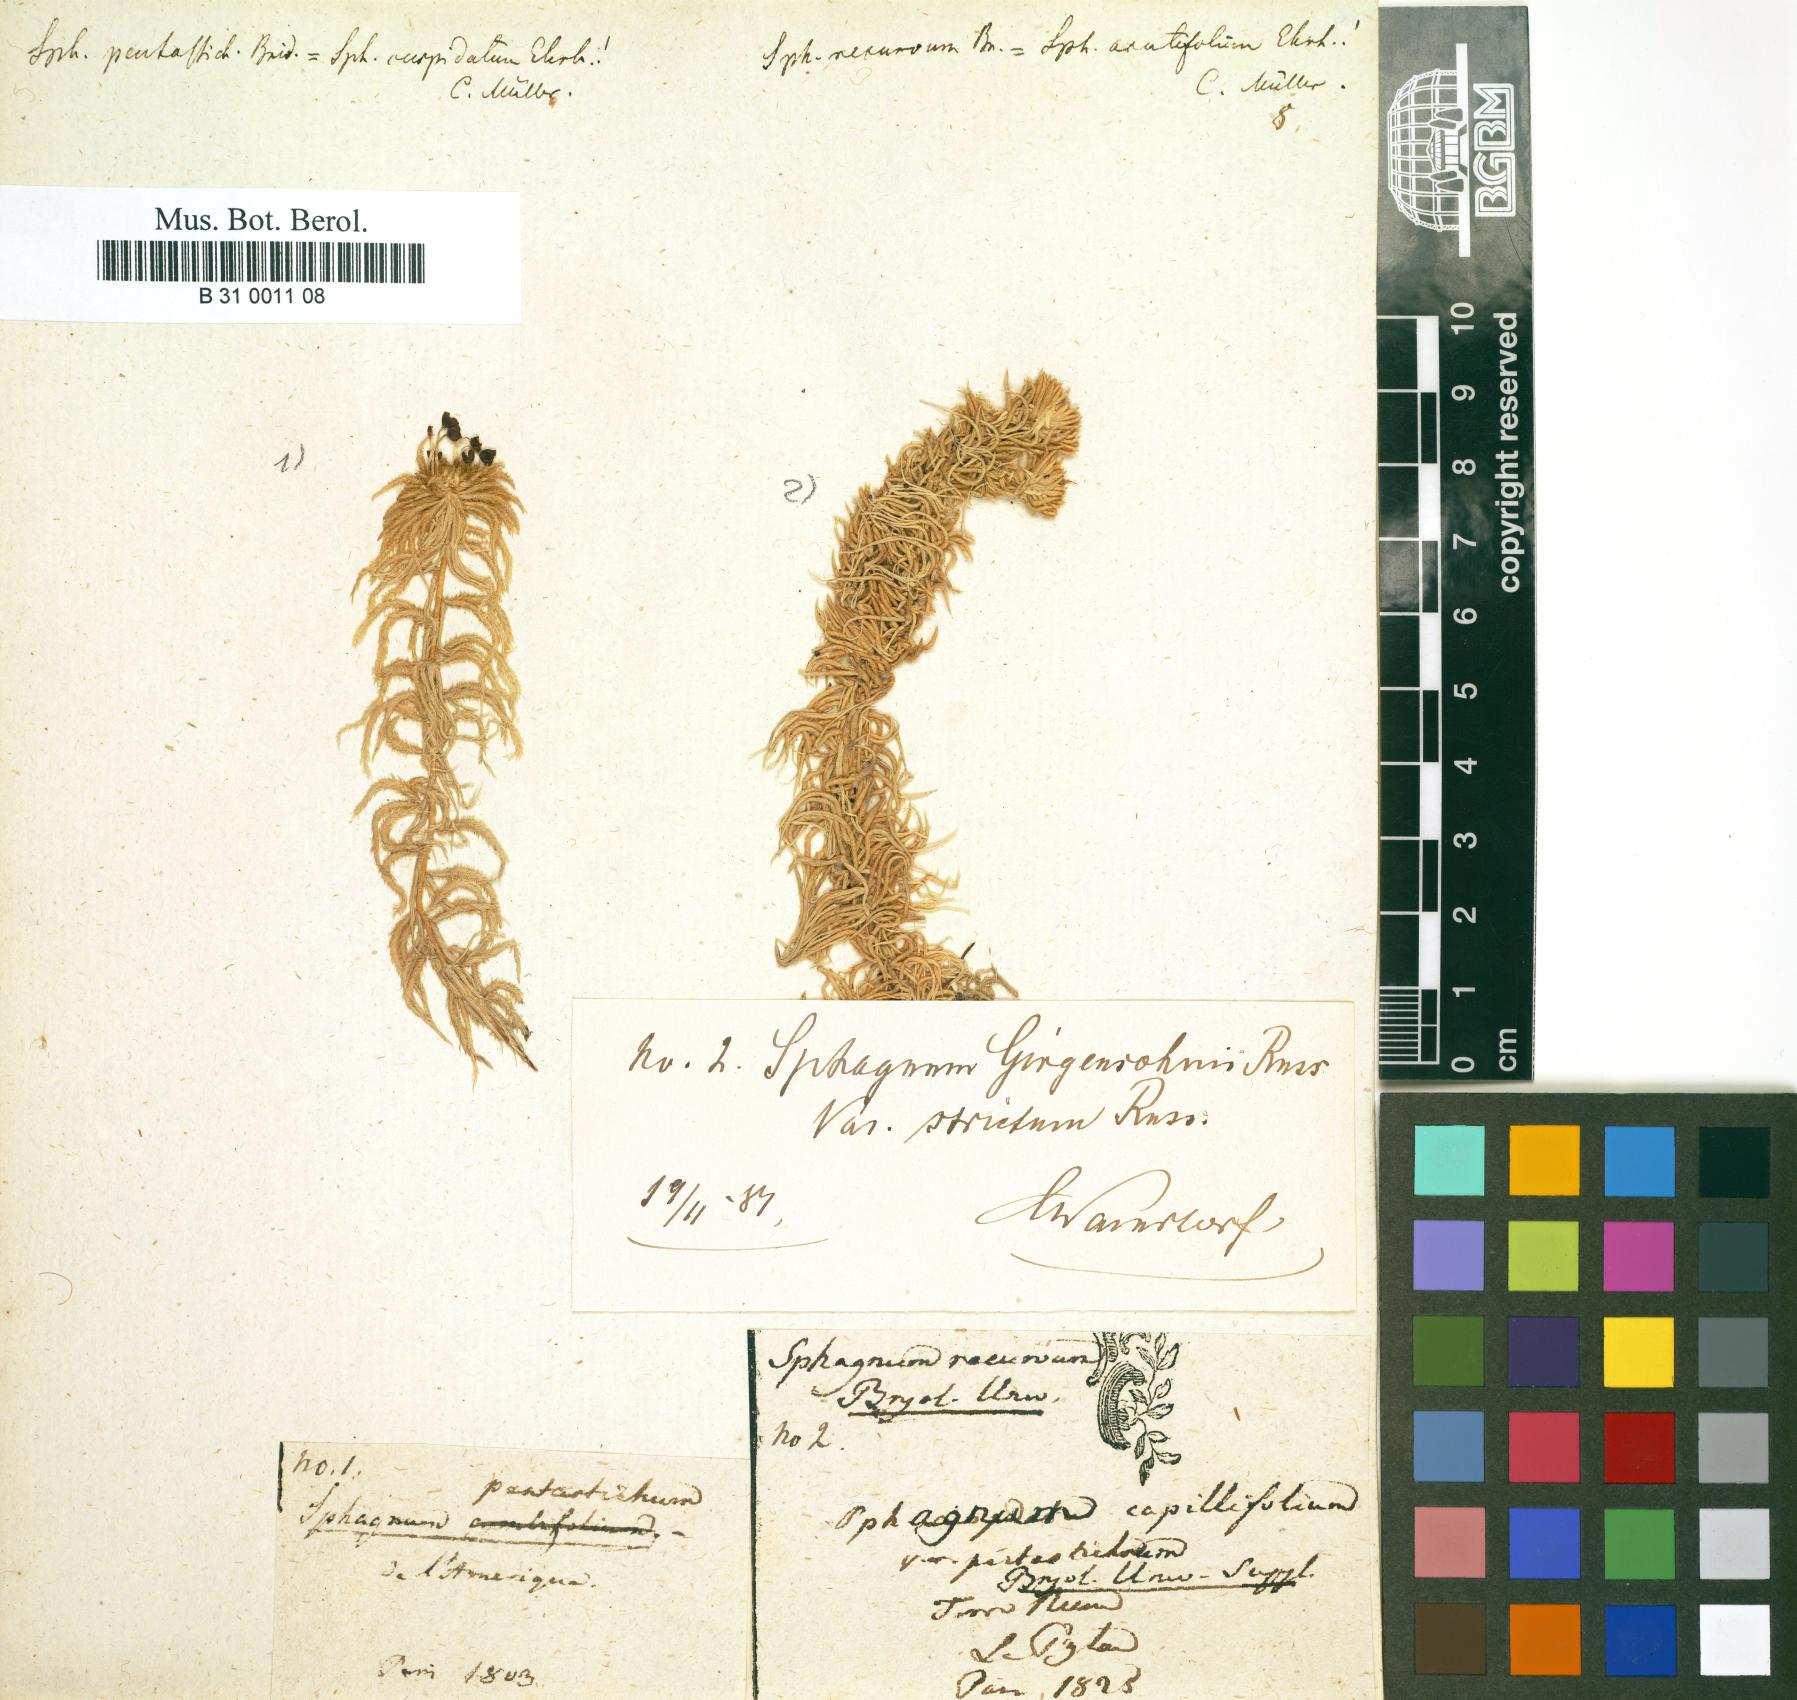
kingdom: Plantae
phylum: Bryophyta
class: Sphagnopsida
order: Sphagnales
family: Sphagnaceae
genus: Sphagnum
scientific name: Sphagnum recurvum
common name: Recurved peatmoss
